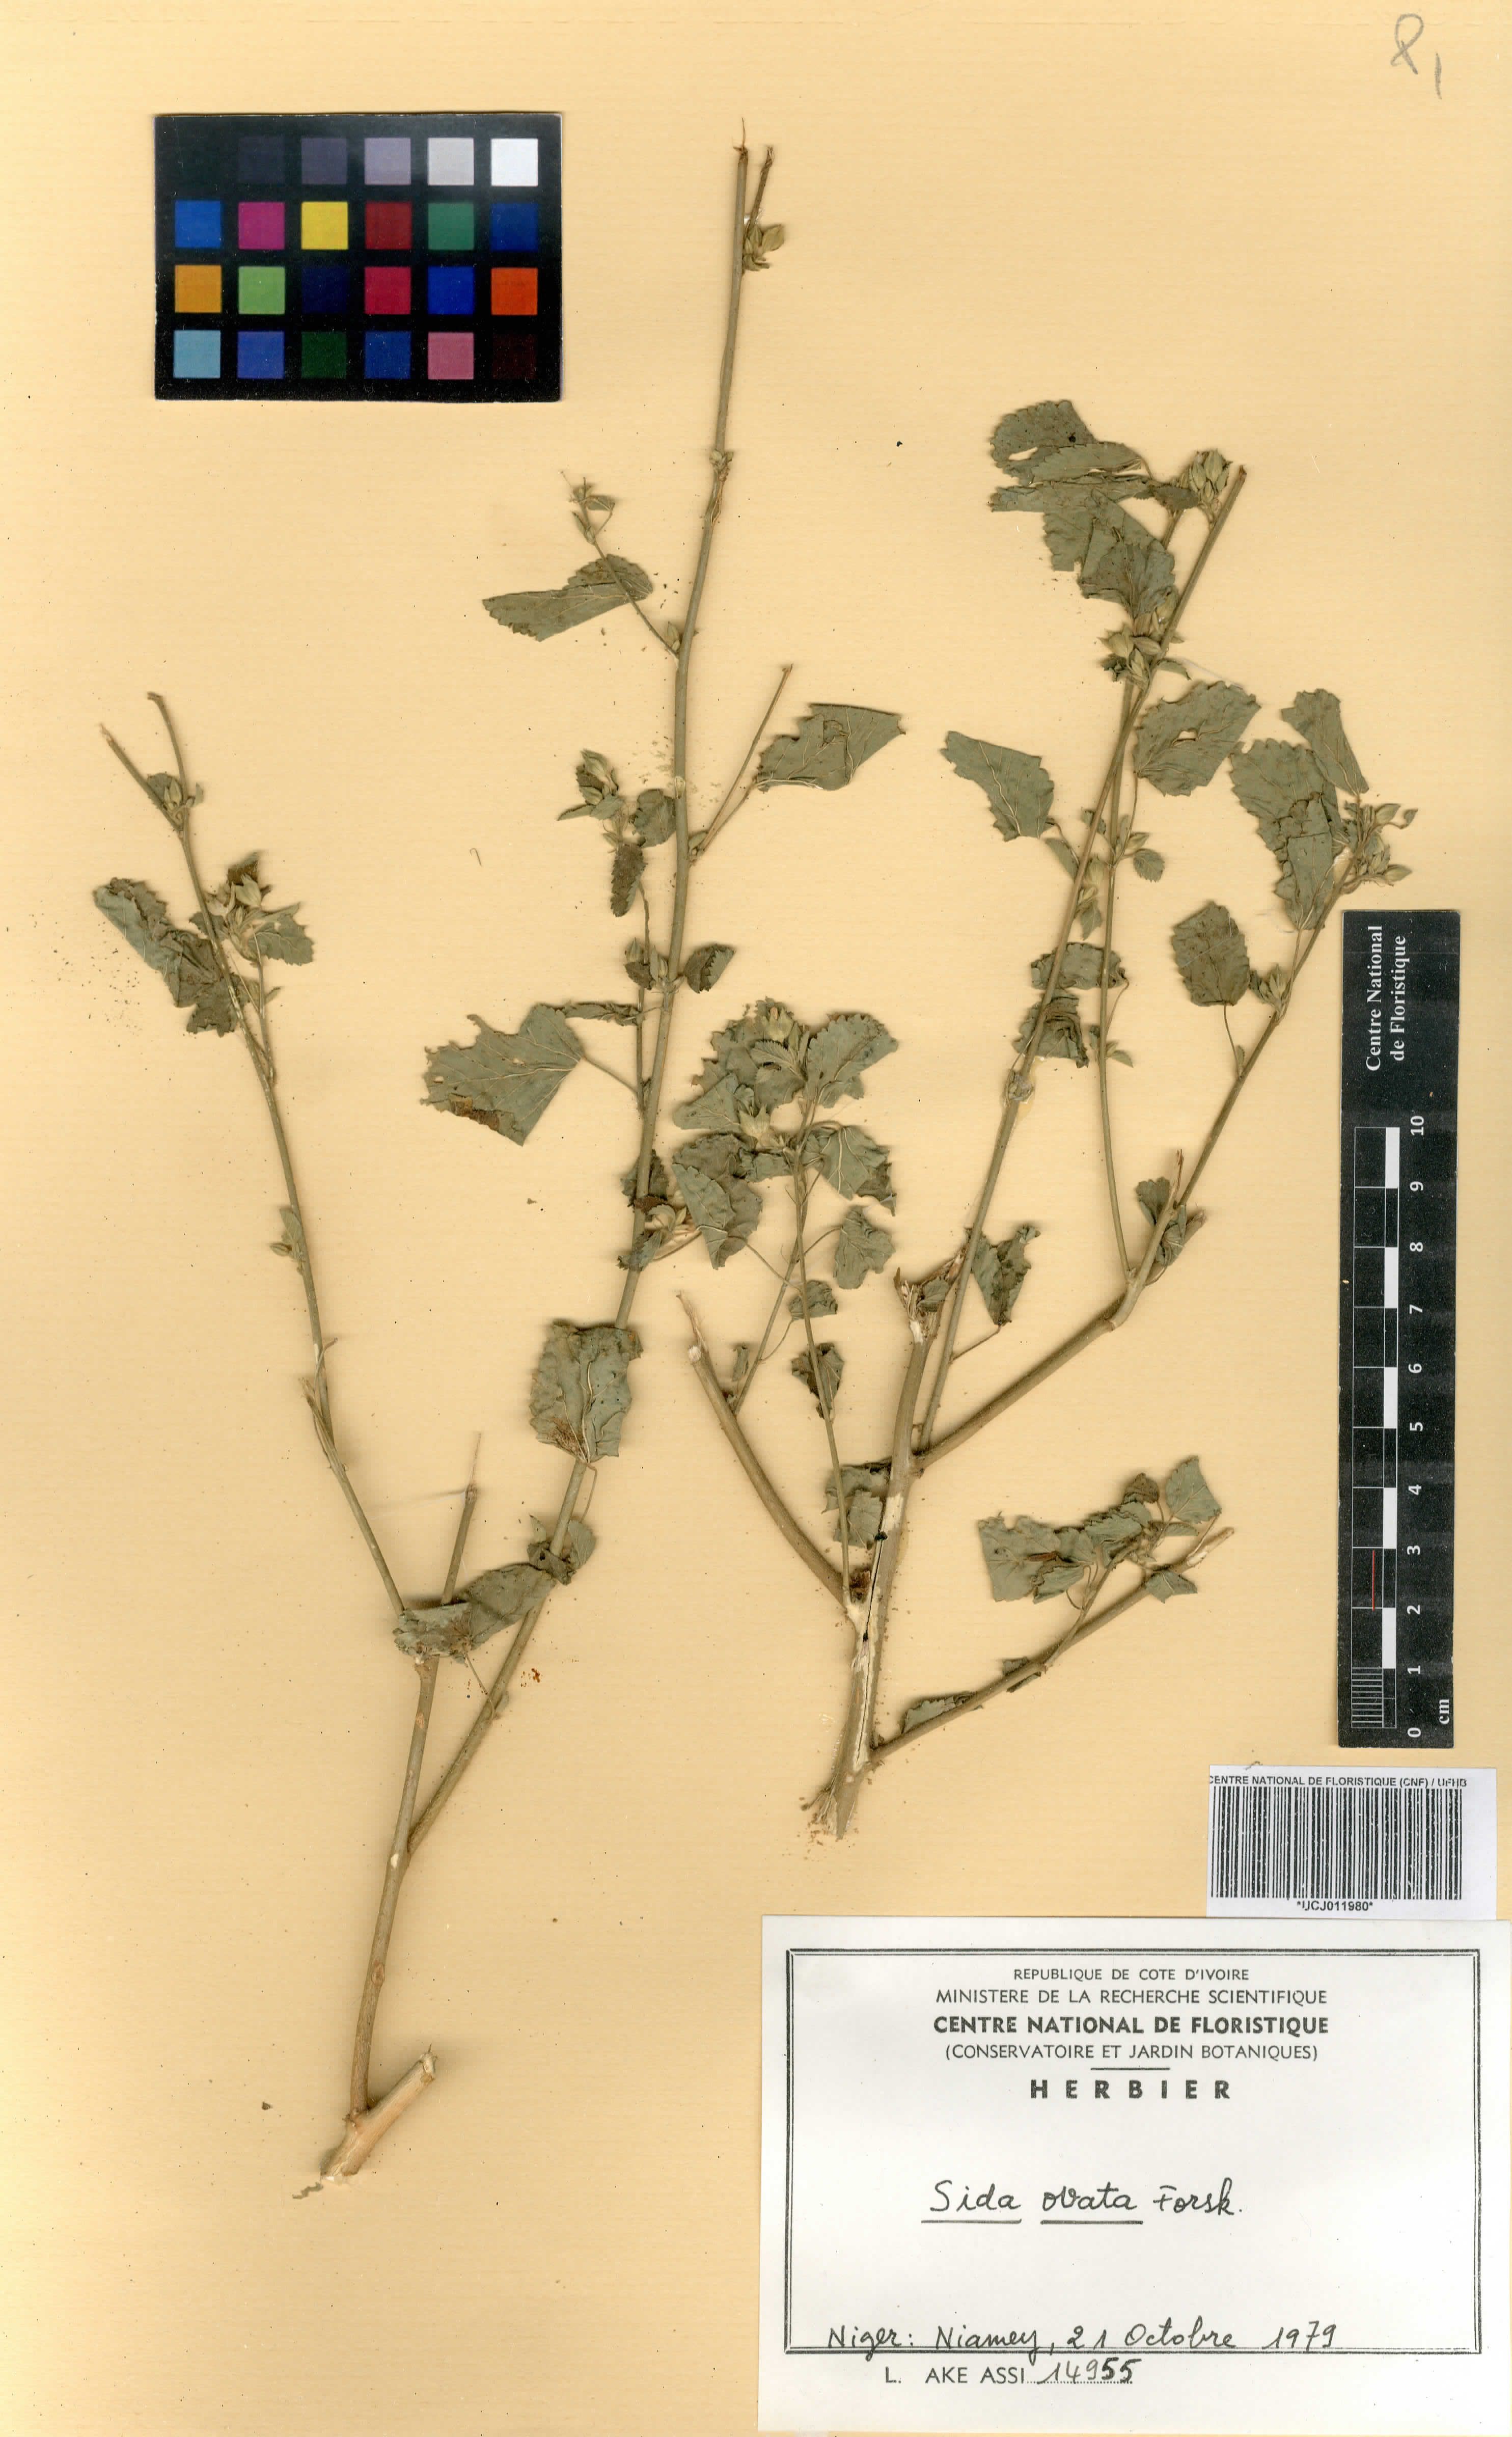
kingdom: Plantae
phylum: Tracheophyta
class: Magnoliopsida
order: Malvales
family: Malvaceae
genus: Sida
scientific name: Sida ovata
